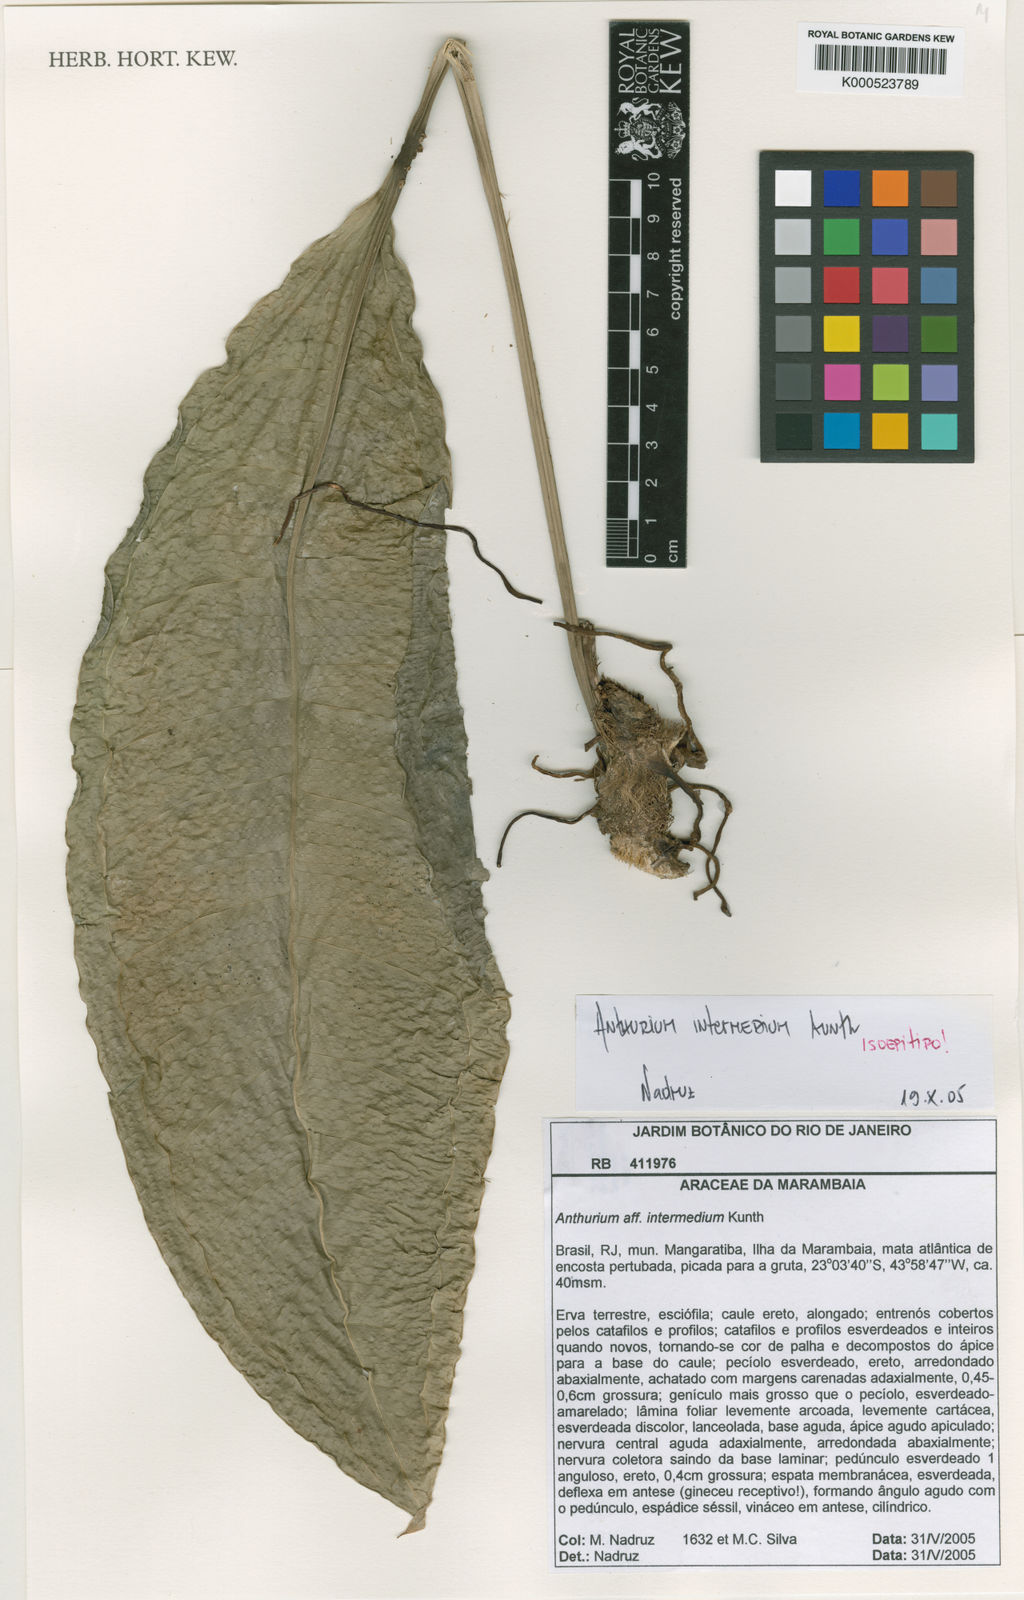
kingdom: Plantae
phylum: Tracheophyta
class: Liliopsida
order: Alismatales
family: Araceae
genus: Anthurium
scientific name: Anthurium intermedium
